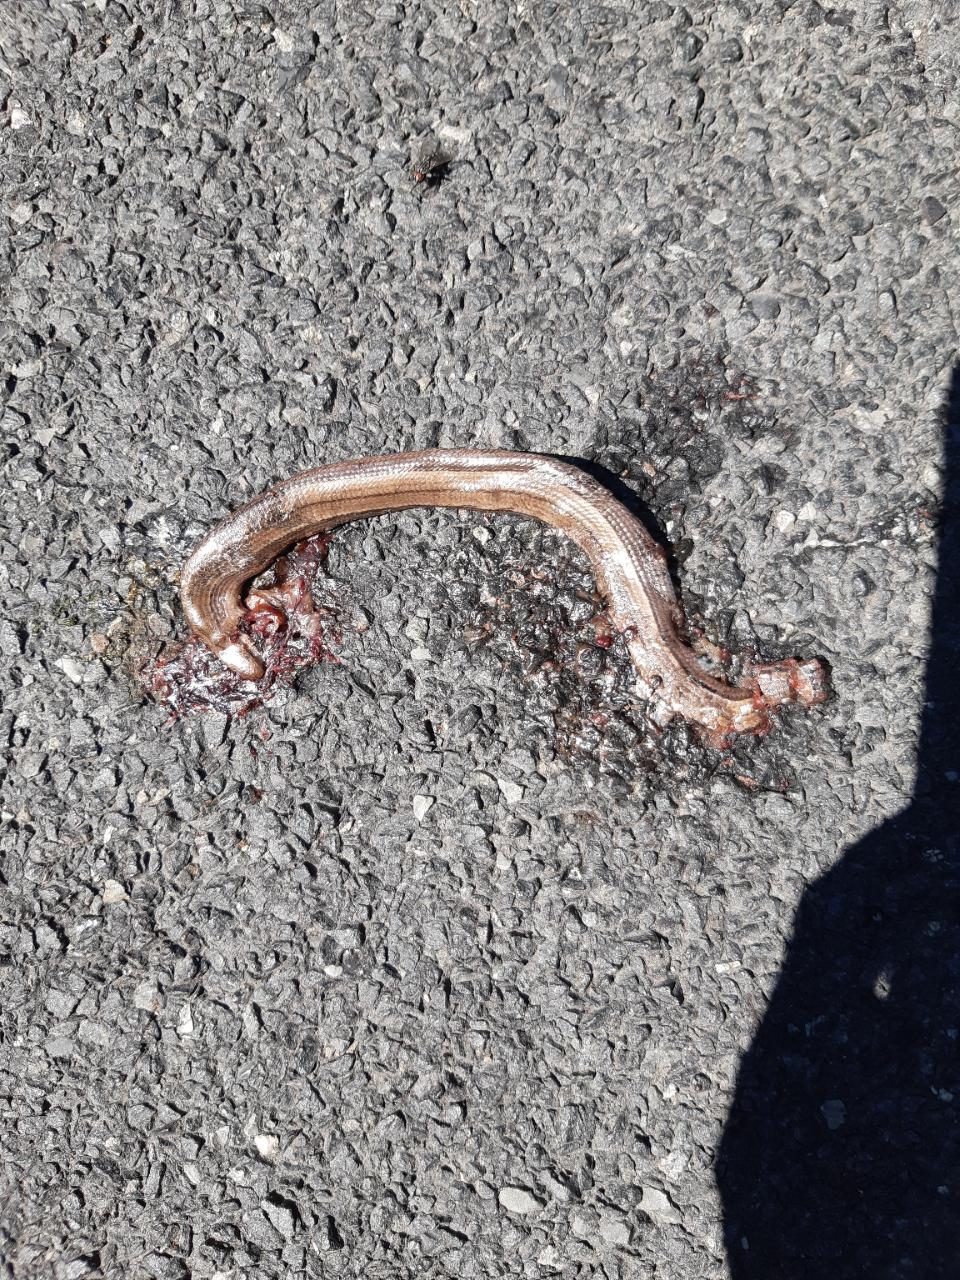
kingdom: Animalia
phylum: Chordata
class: Squamata
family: Anguidae
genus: Anguis
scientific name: Anguis fragilis
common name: Slow worm
